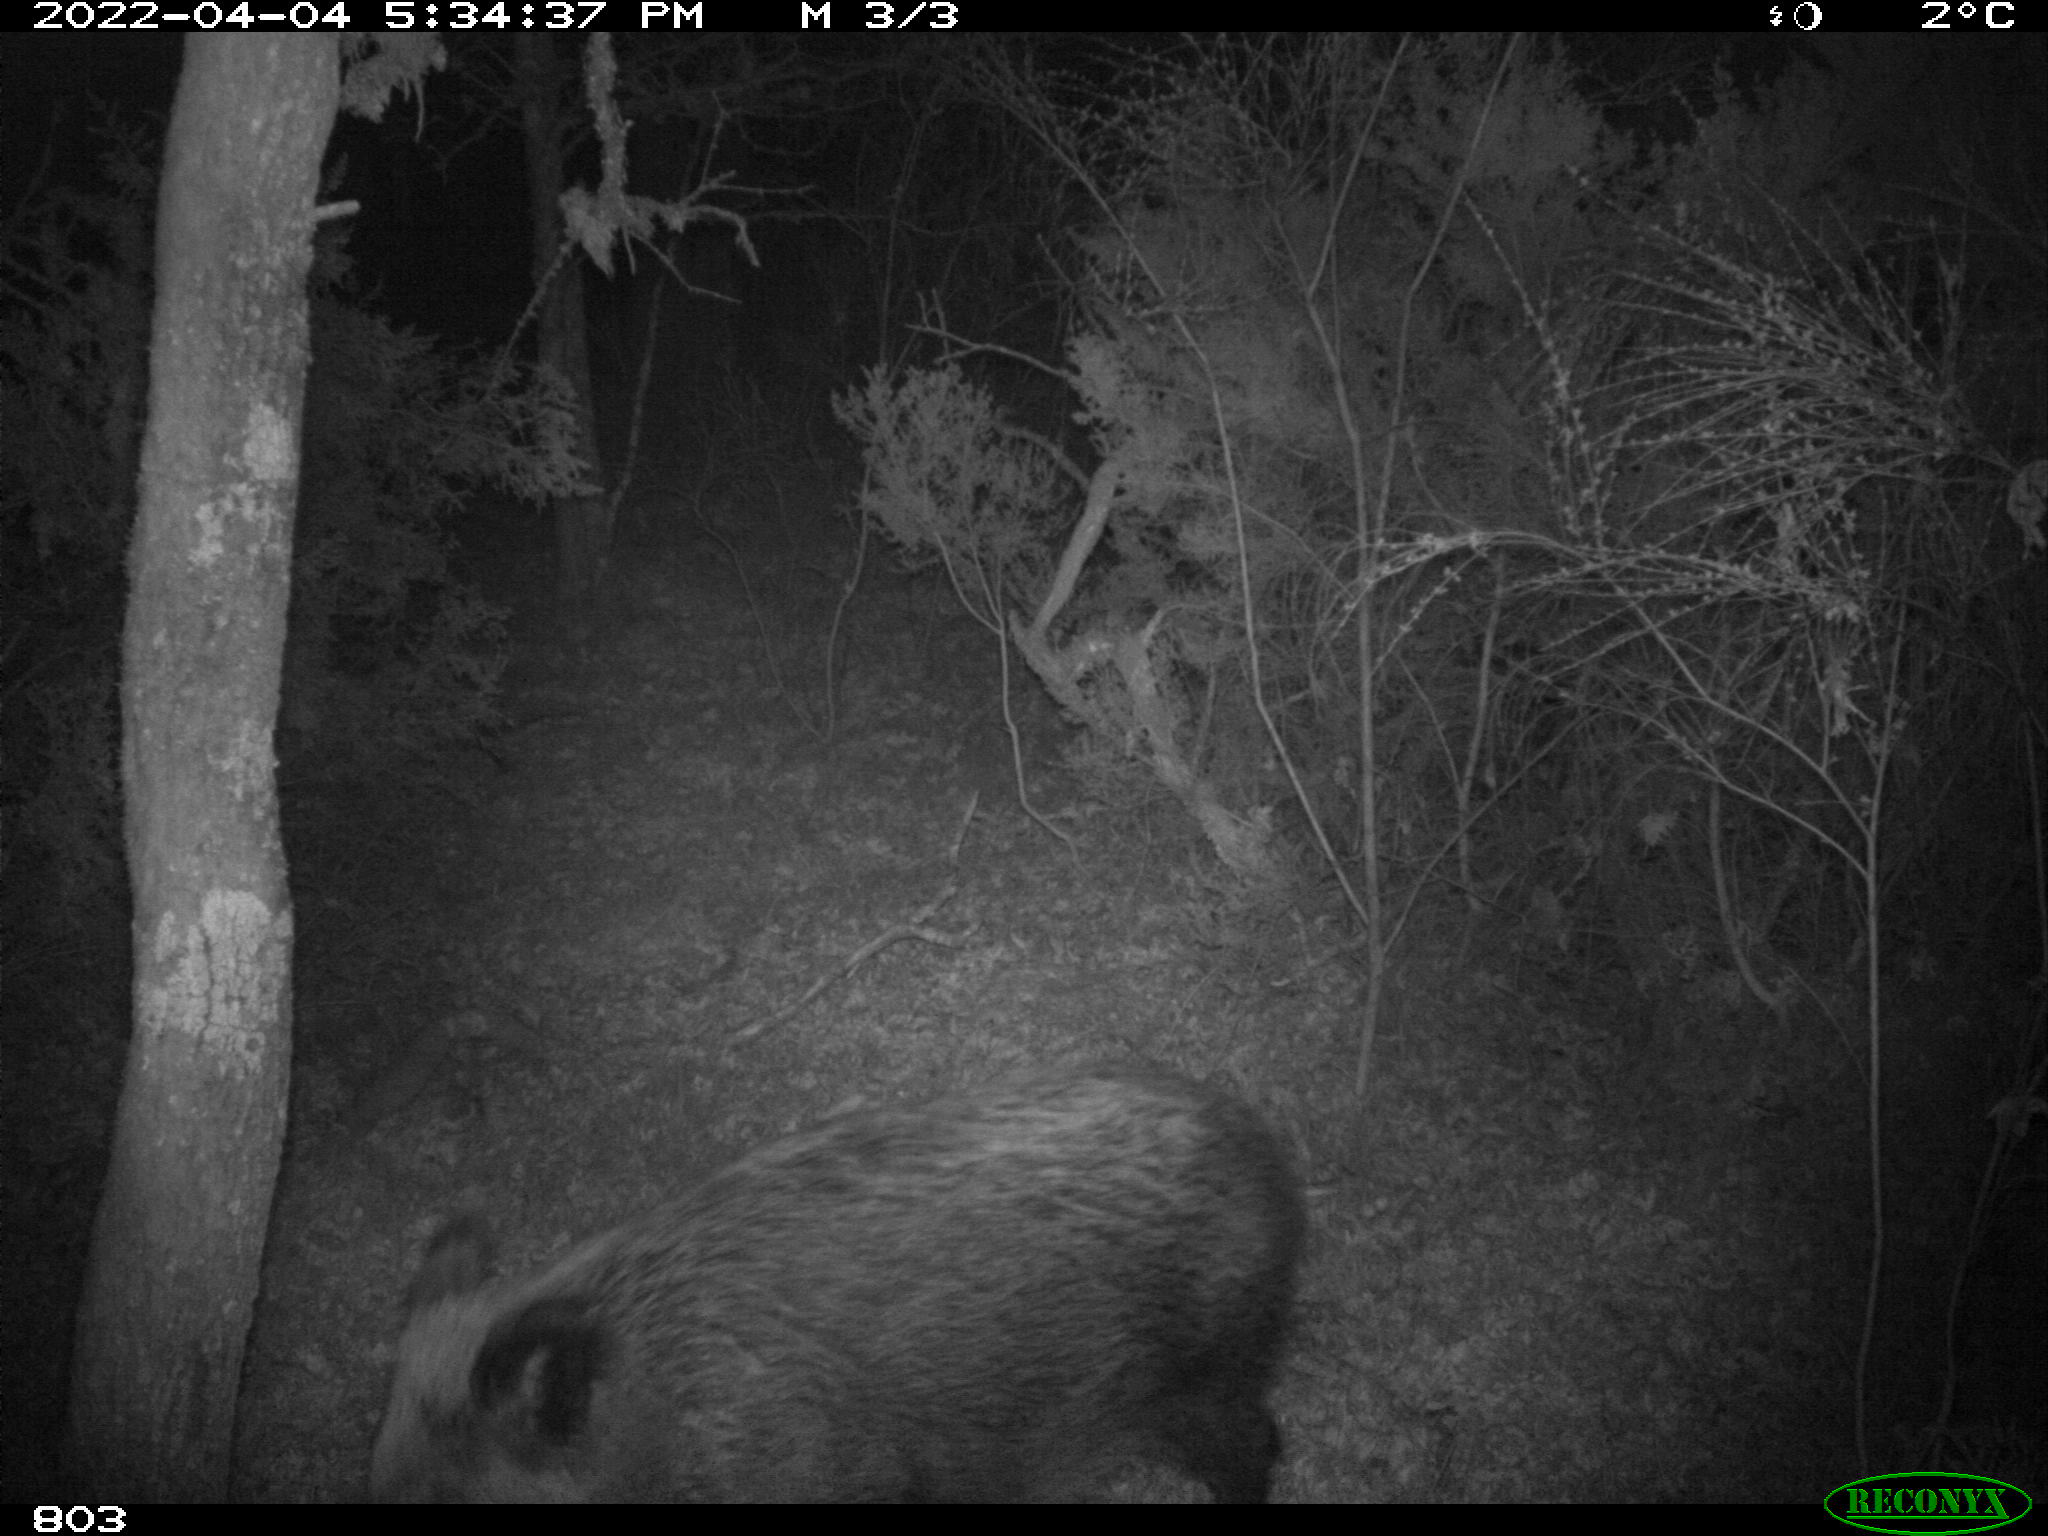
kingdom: Animalia
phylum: Chordata
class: Mammalia
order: Artiodactyla
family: Suidae
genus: Sus
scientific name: Sus scrofa
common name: Wild boar
